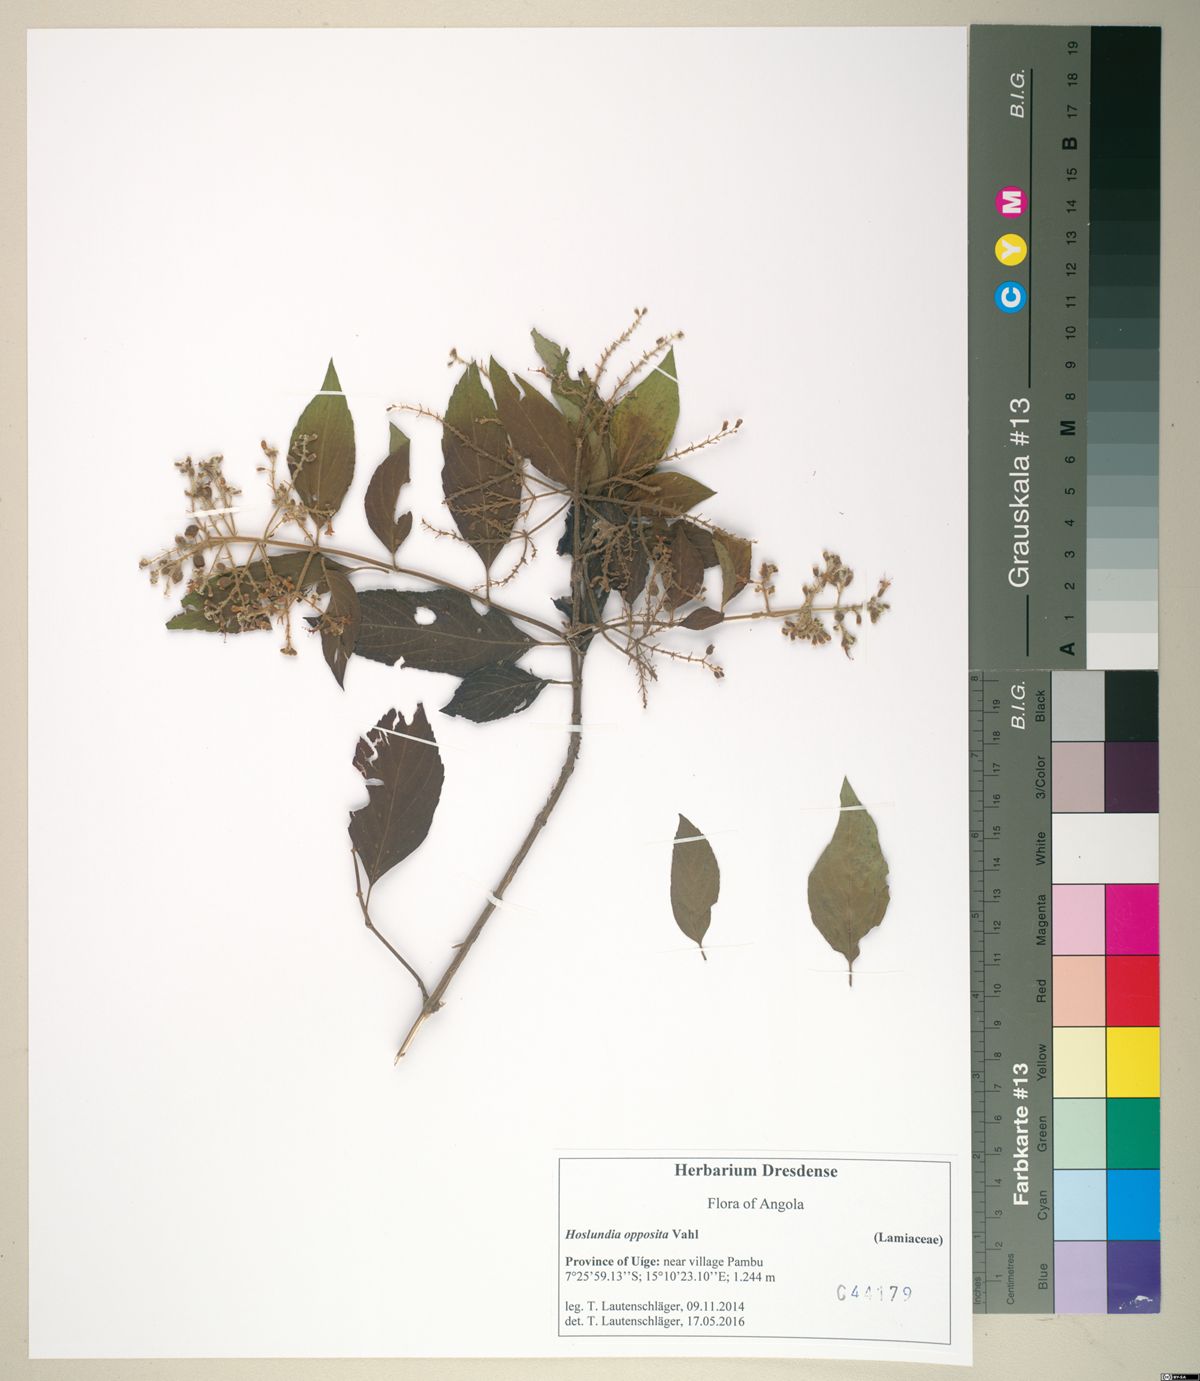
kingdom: Plantae
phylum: Tracheophyta
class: Magnoliopsida
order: Lamiales
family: Lamiaceae
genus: Hoslundia
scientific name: Hoslundia opposita
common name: Kamyuye
